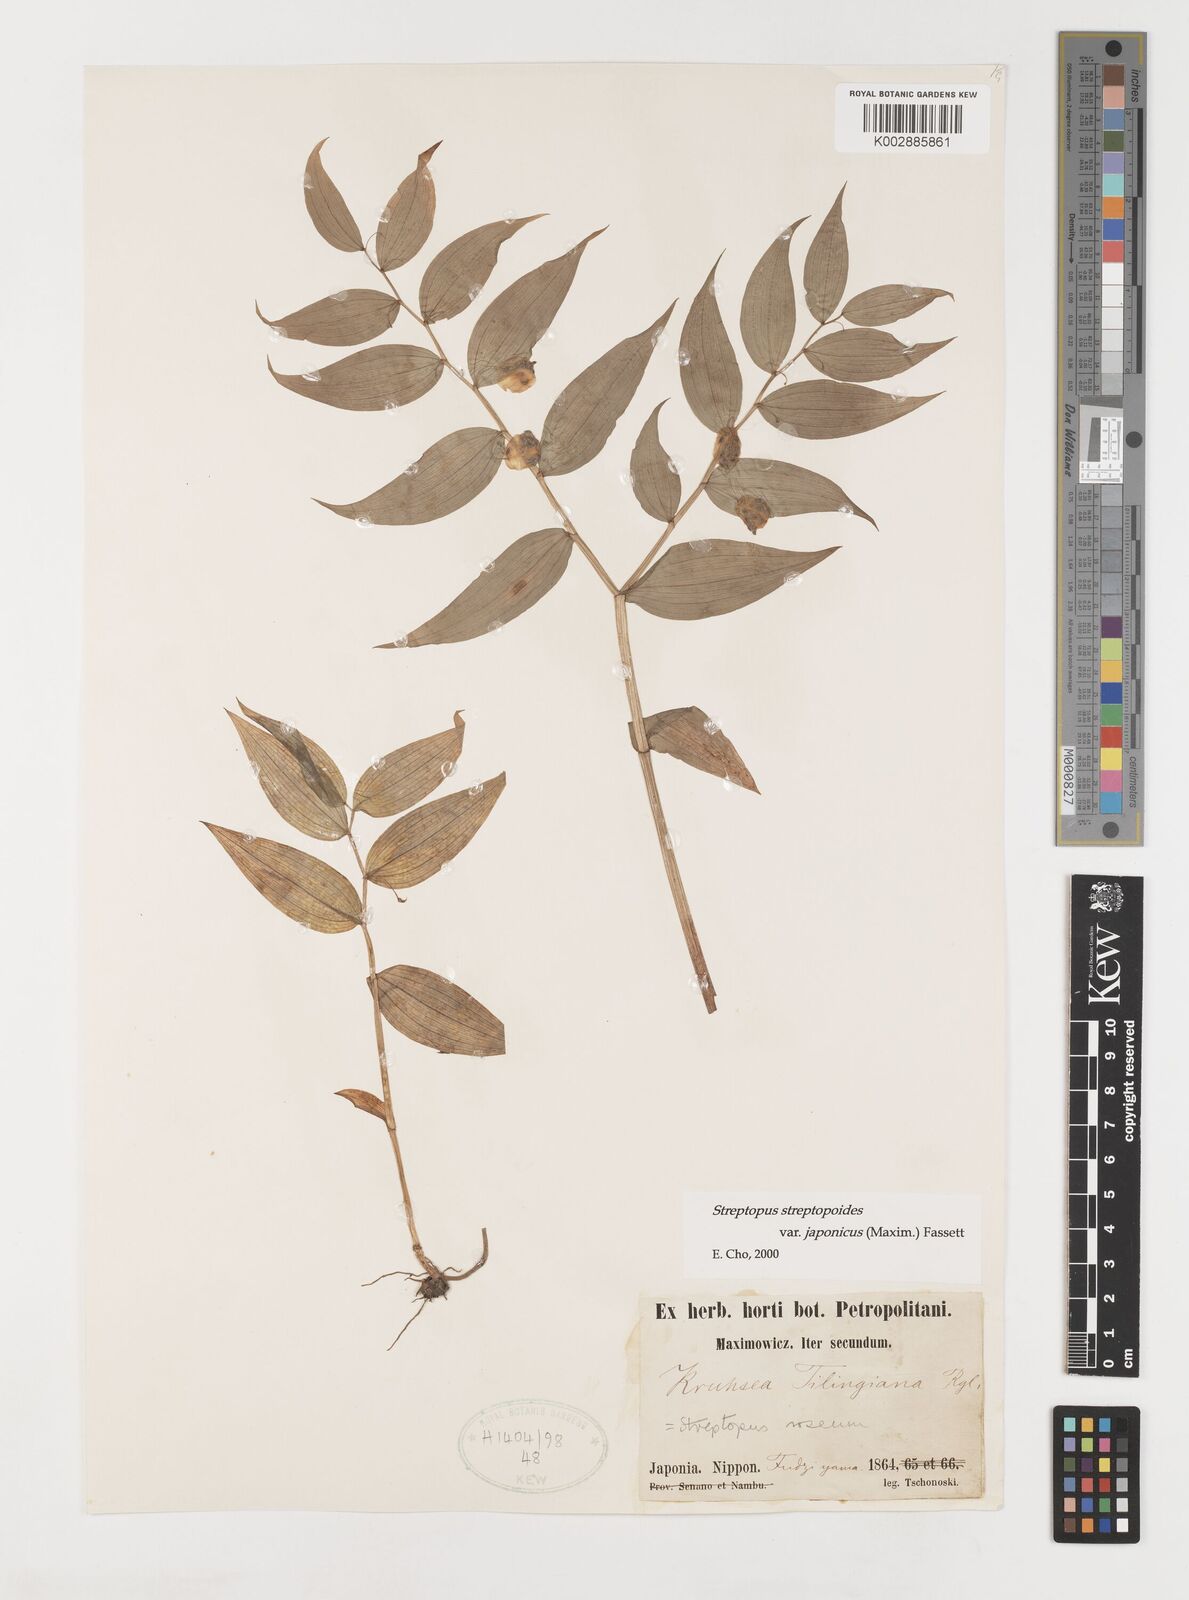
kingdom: Plantae
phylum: Tracheophyta
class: Liliopsida
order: Liliales
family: Liliaceae
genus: Streptopus
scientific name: Streptopus streptopoides
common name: Small twisted-stalk
